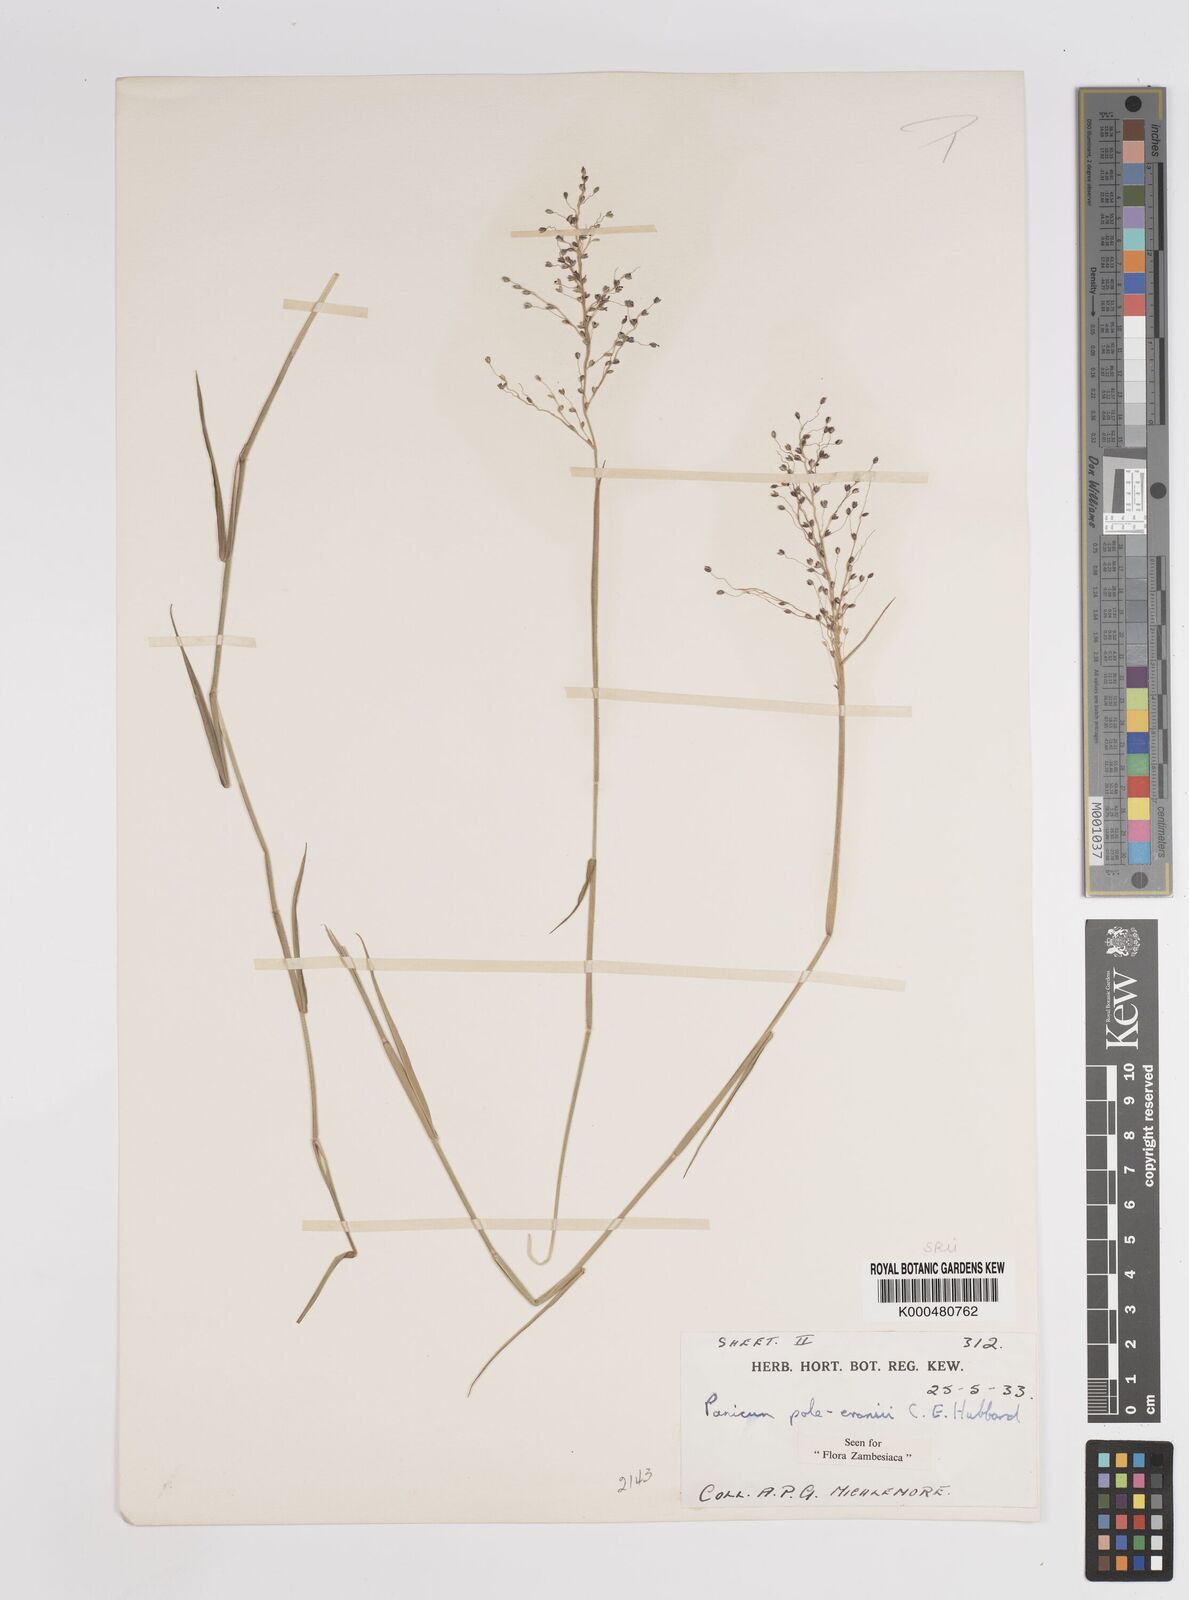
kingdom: Plantae
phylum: Tracheophyta
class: Liliopsida
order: Poales
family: Poaceae
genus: Adenochloa
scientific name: Adenochloa pole-evansii
